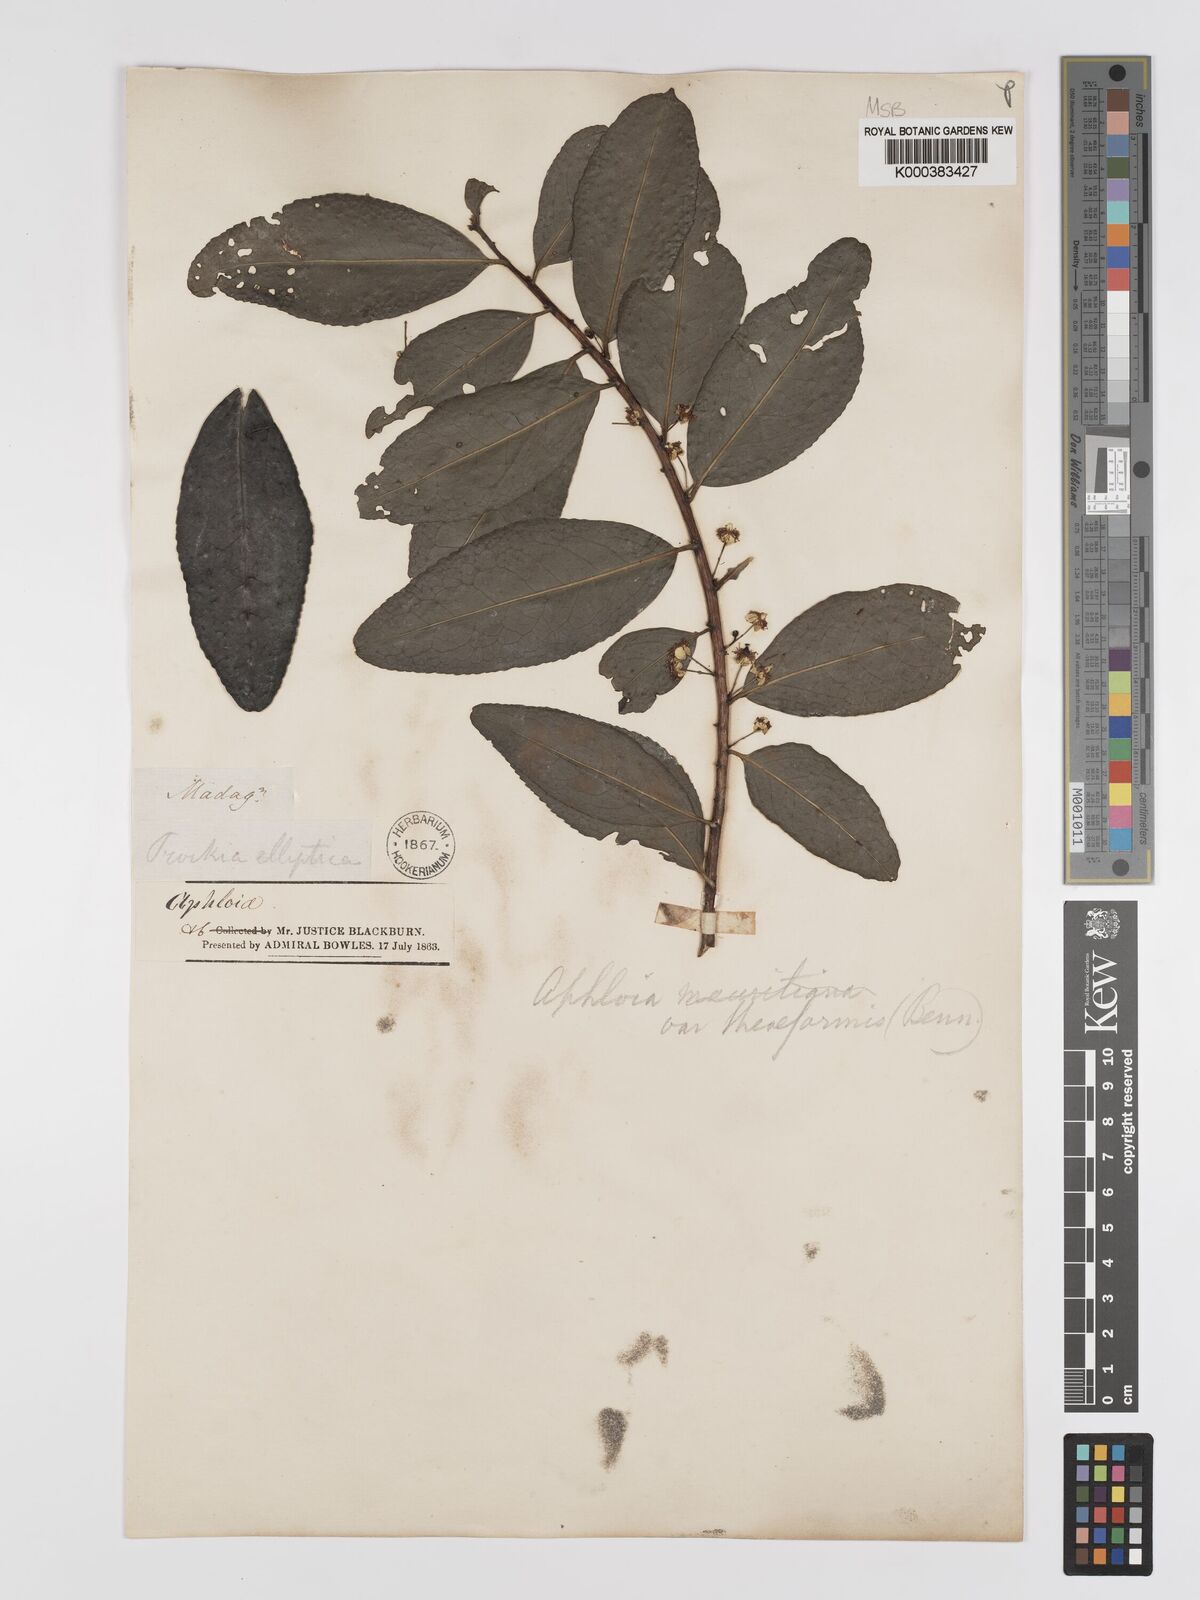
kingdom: Plantae
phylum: Tracheophyta
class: Magnoliopsida
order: Crossosomatales
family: Aphloiaceae
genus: Aphloia
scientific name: Aphloia theiformis
